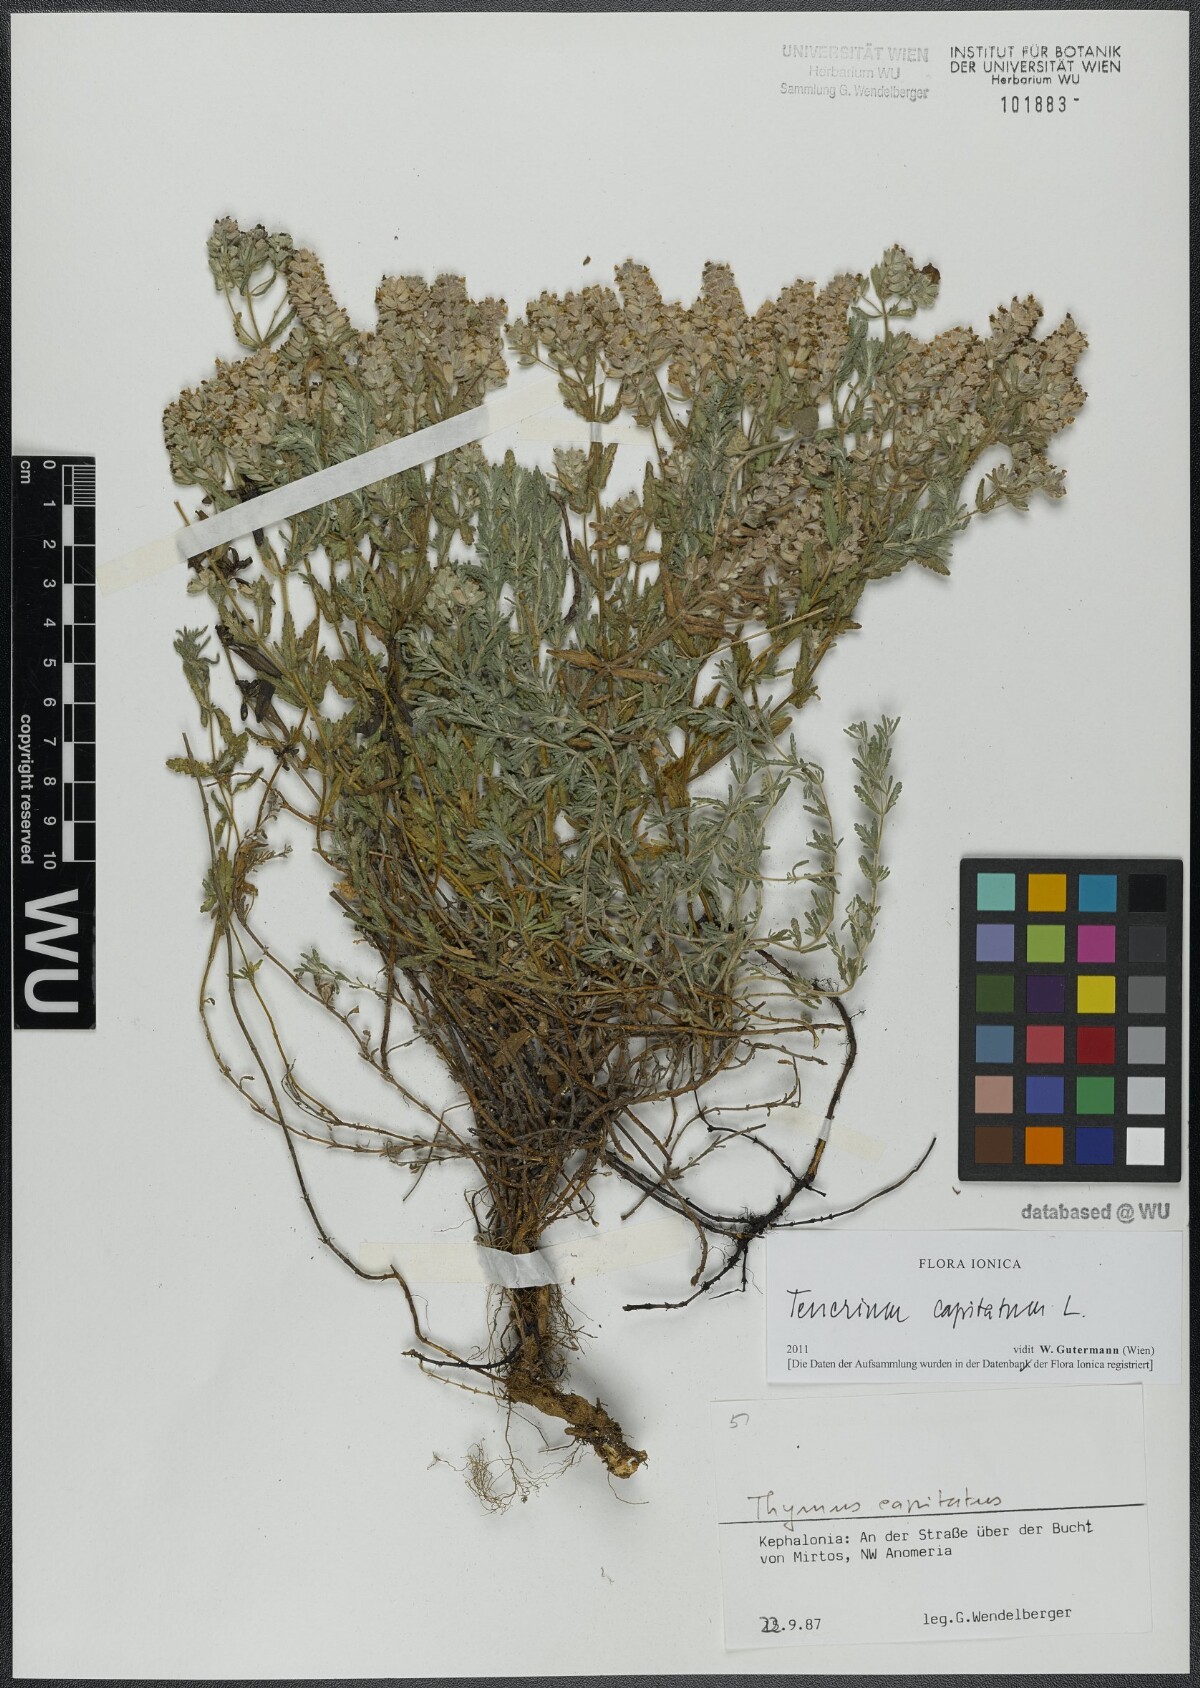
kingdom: Plantae
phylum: Tracheophyta
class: Magnoliopsida
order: Lamiales
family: Lamiaceae
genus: Teucrium
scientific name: Teucrium capitatum
